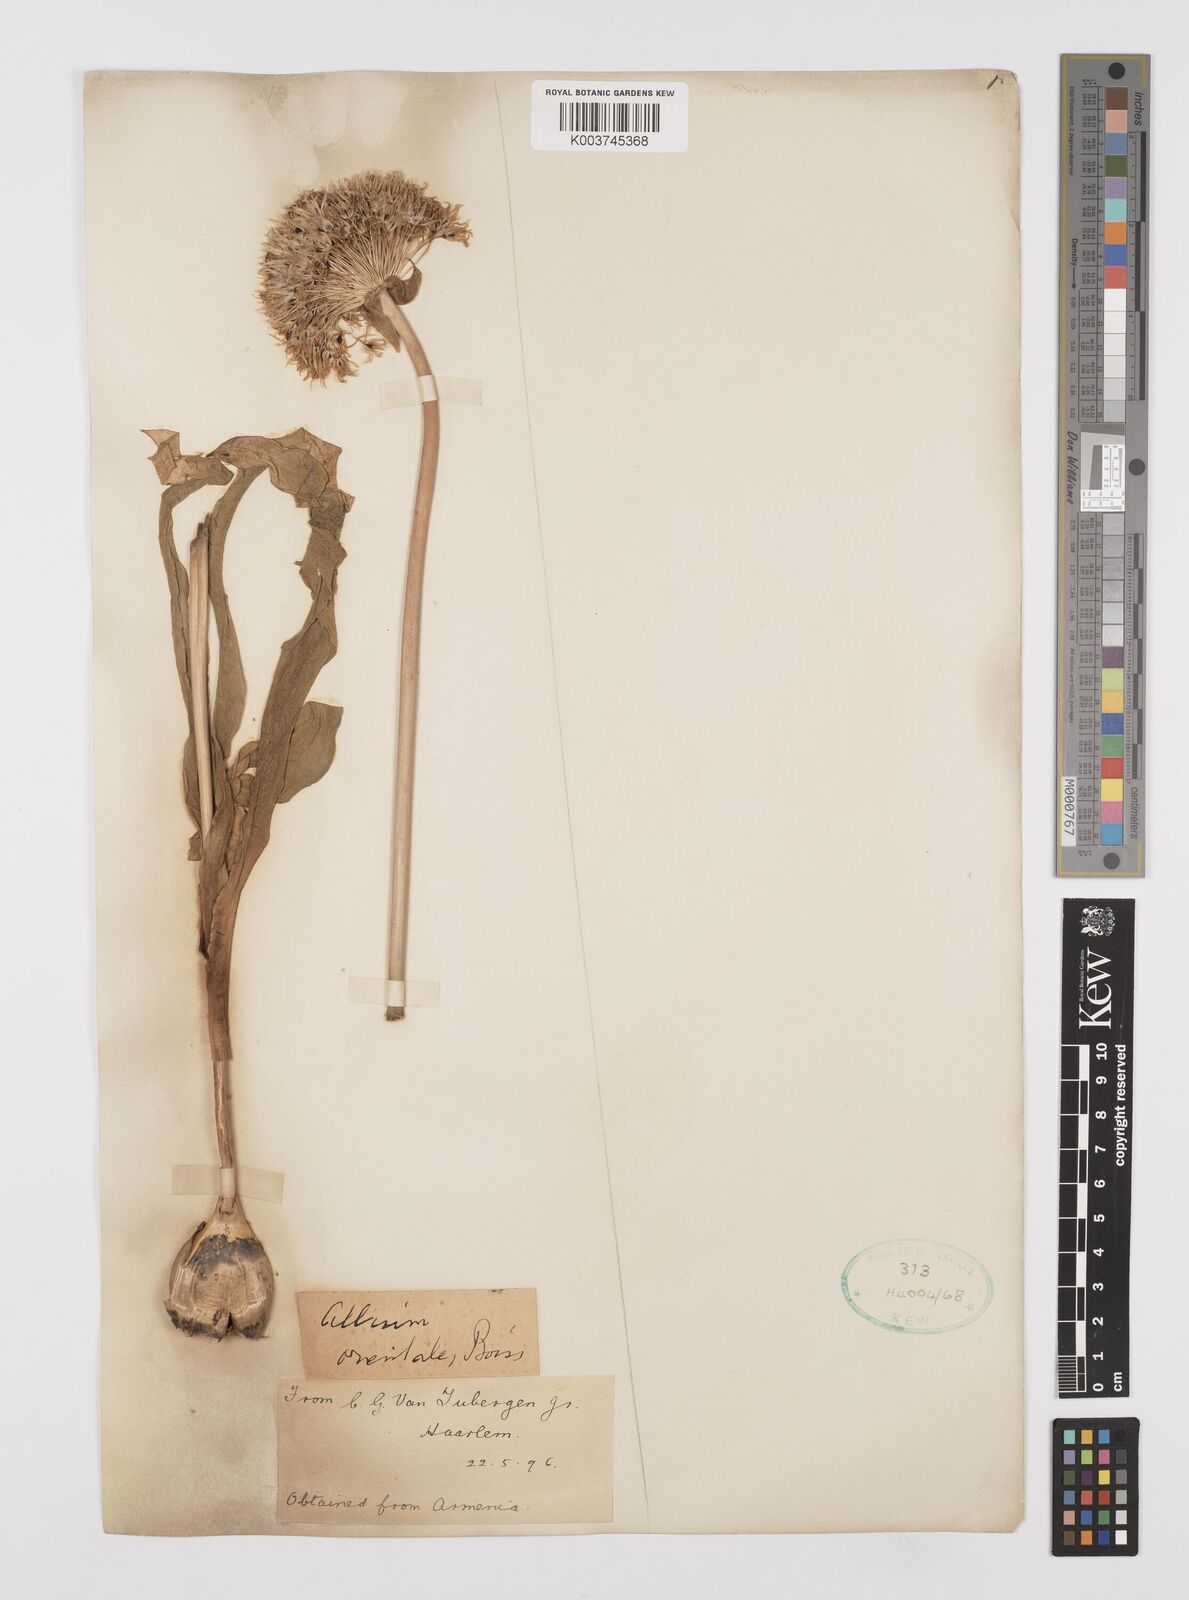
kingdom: Plantae
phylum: Tracheophyta
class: Liliopsida
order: Asparagales
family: Amaryllidaceae
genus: Allium
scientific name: Allium
